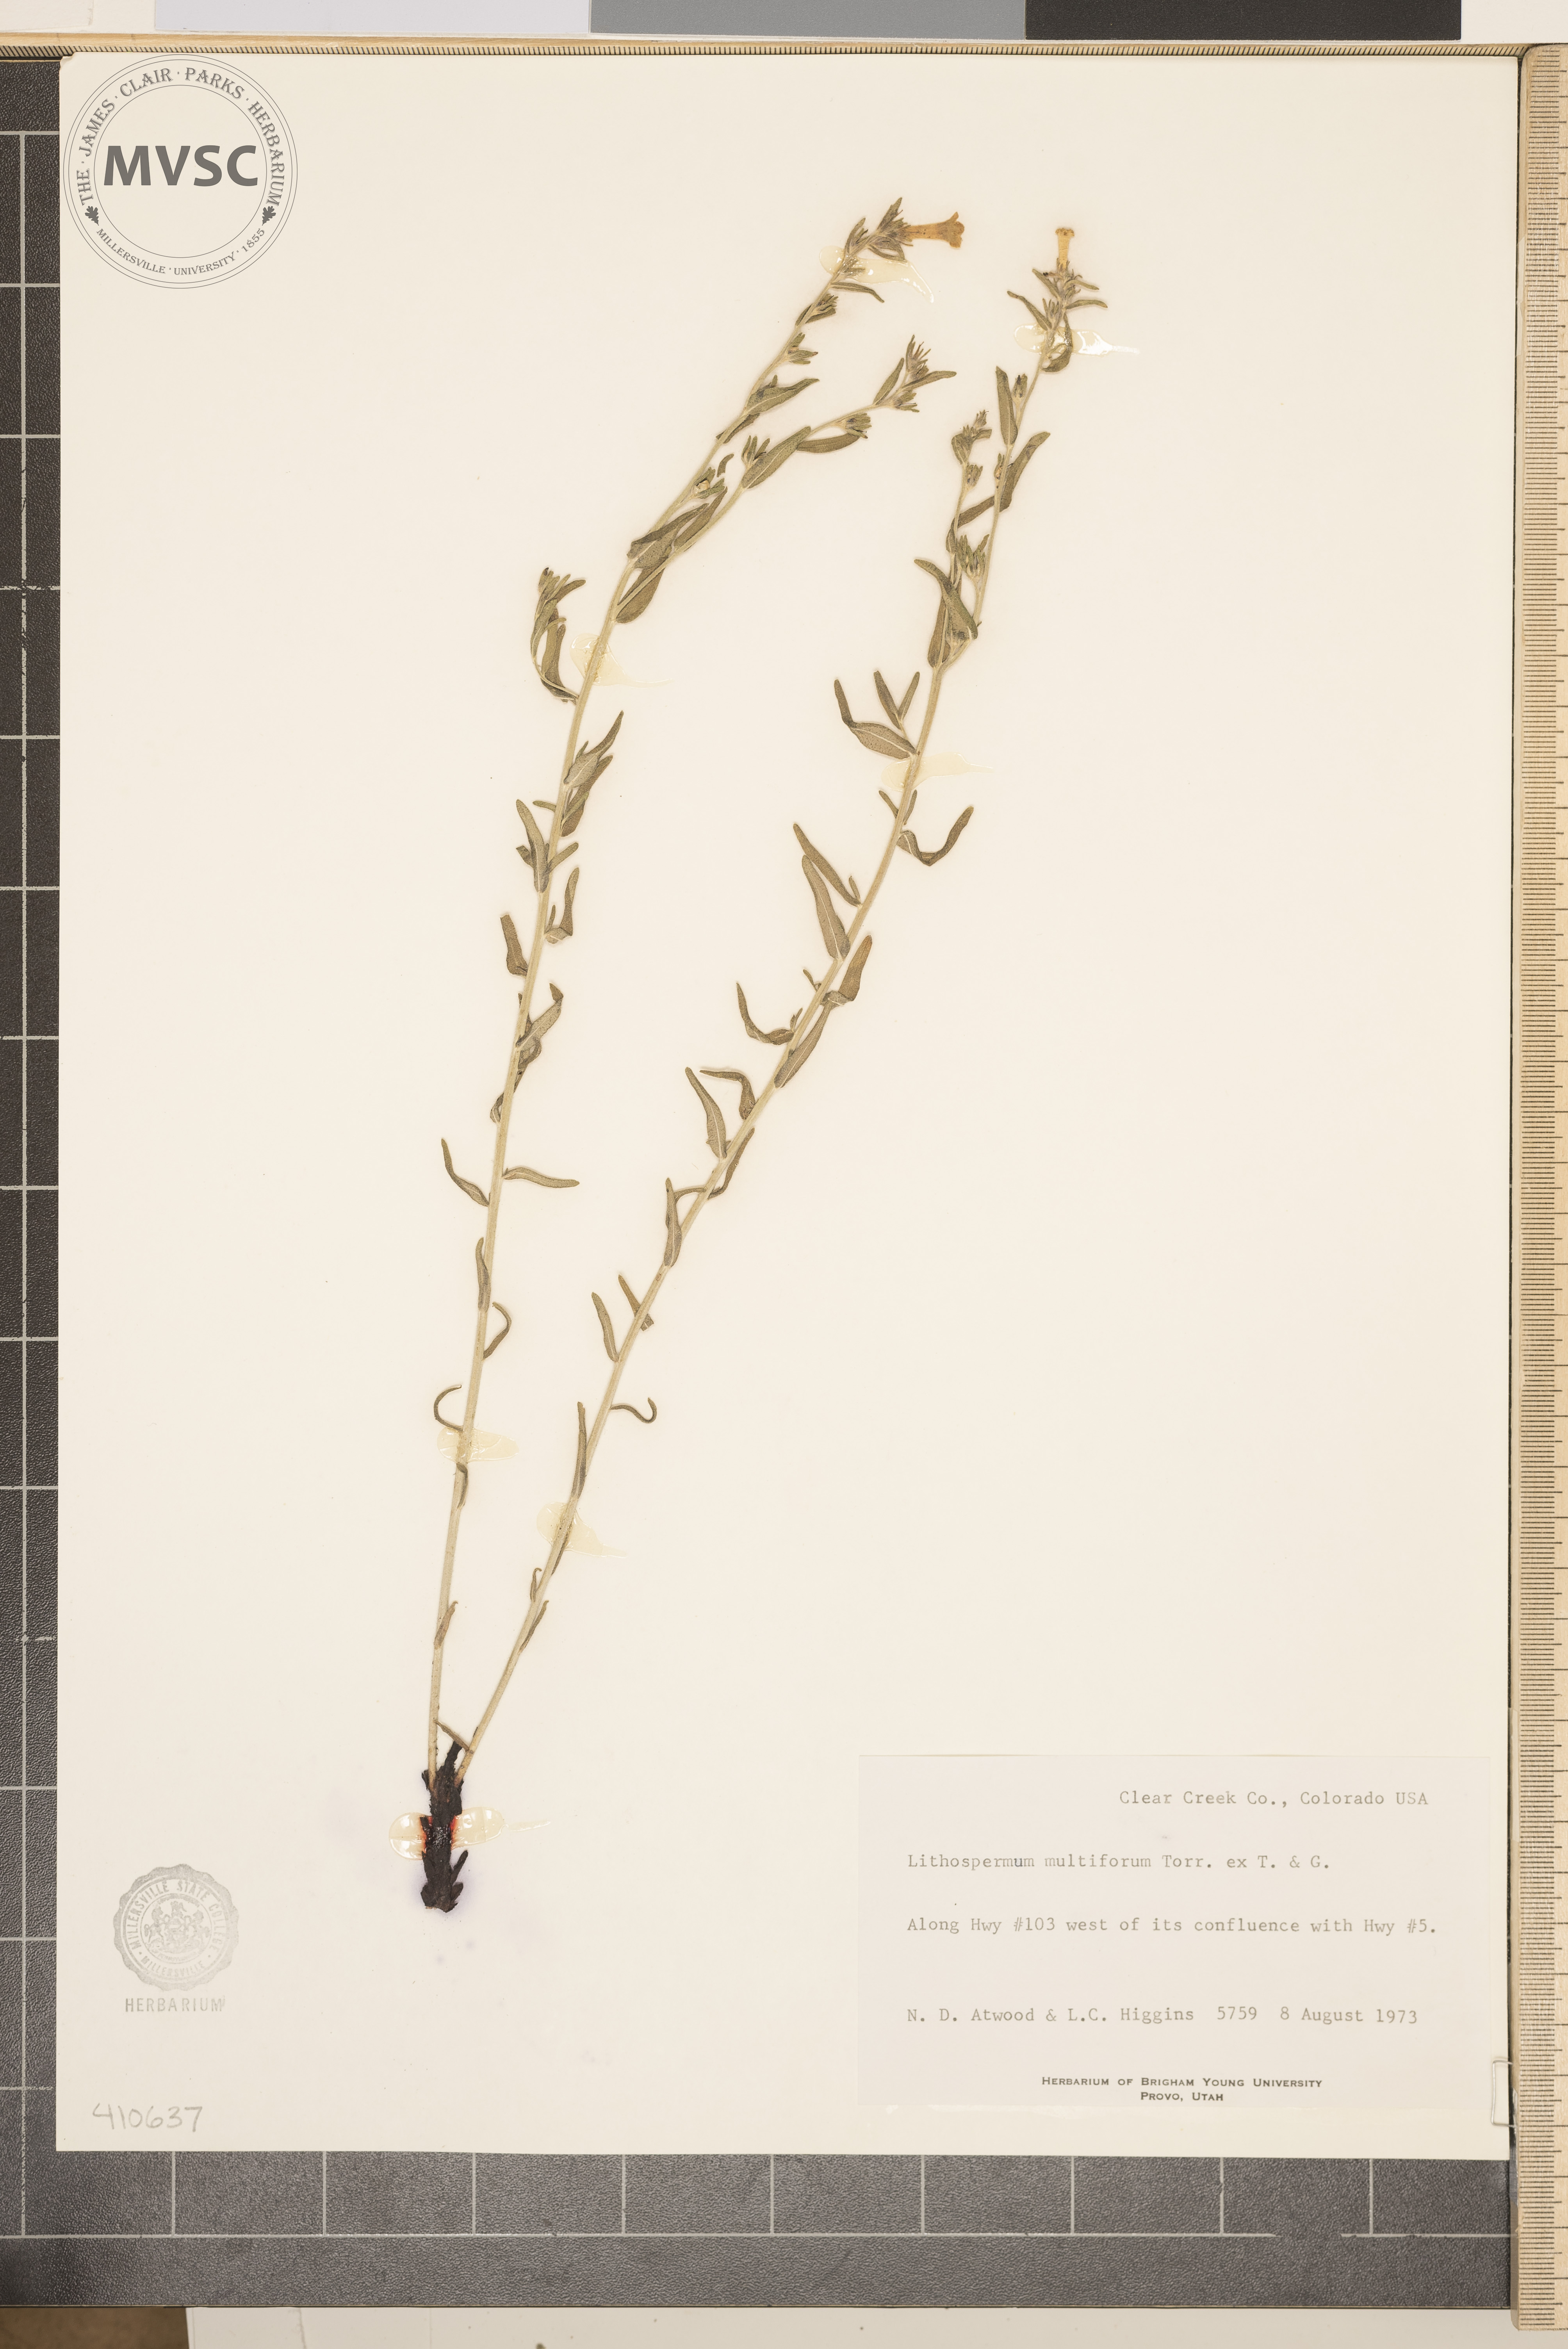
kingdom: Plantae
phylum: Tracheophyta
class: Magnoliopsida
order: Boraginales
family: Boraginaceae
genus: Lithospermum
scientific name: Lithospermum multiflorum
